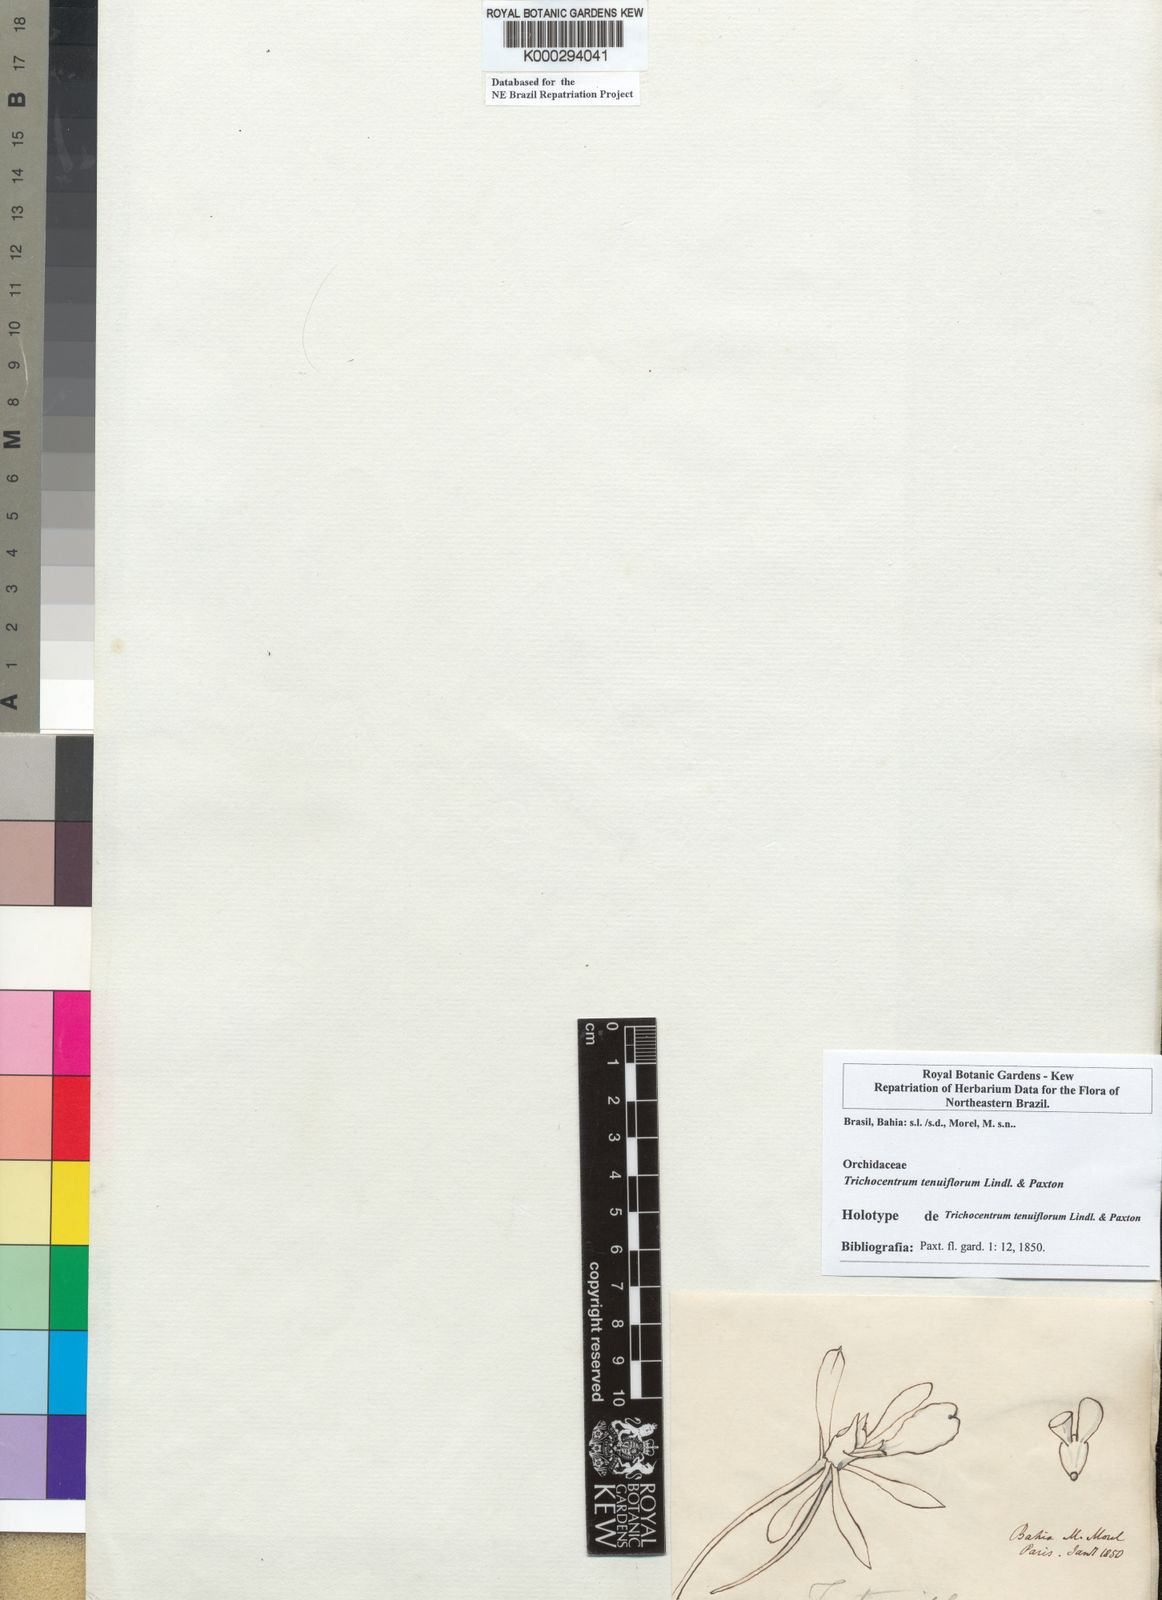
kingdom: Plantae
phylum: Tracheophyta
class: Liliopsida
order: Asparagales
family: Orchidaceae
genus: Trichocentrum
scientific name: Trichocentrum tenuiflorum
